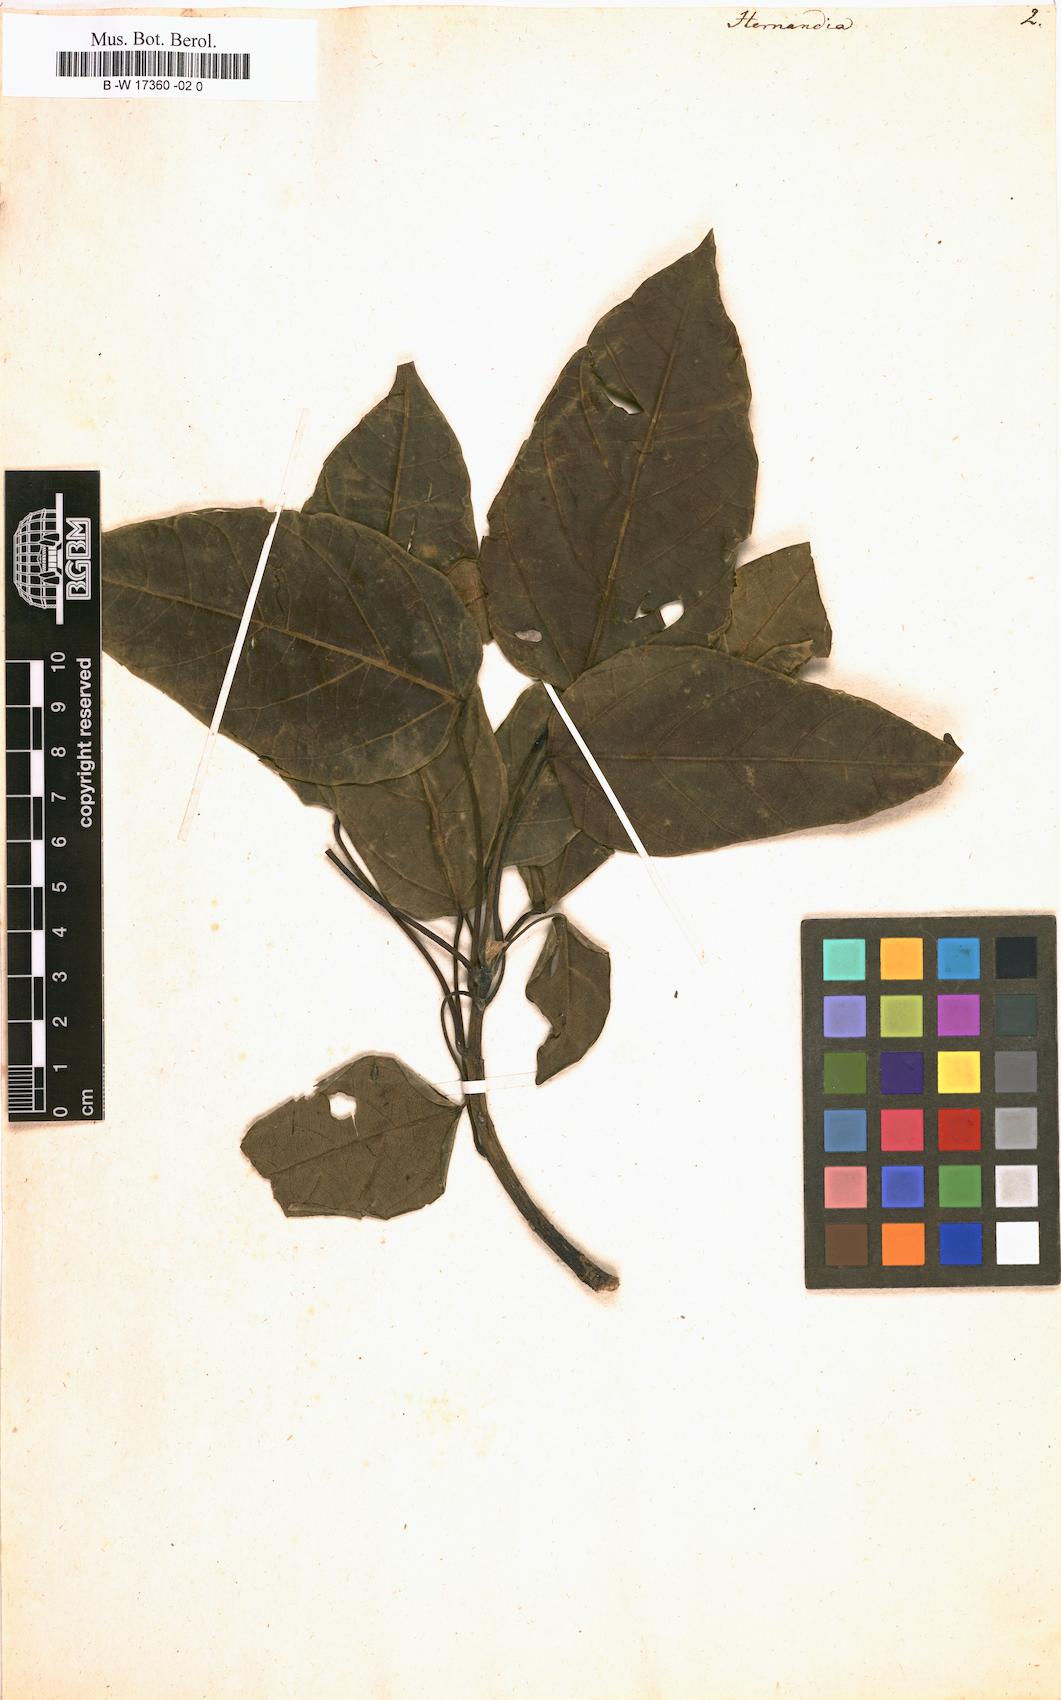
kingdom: Plantae
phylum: Tracheophyta
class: Magnoliopsida
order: Laurales
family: Hernandiaceae
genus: Hernandia
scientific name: Hernandia
